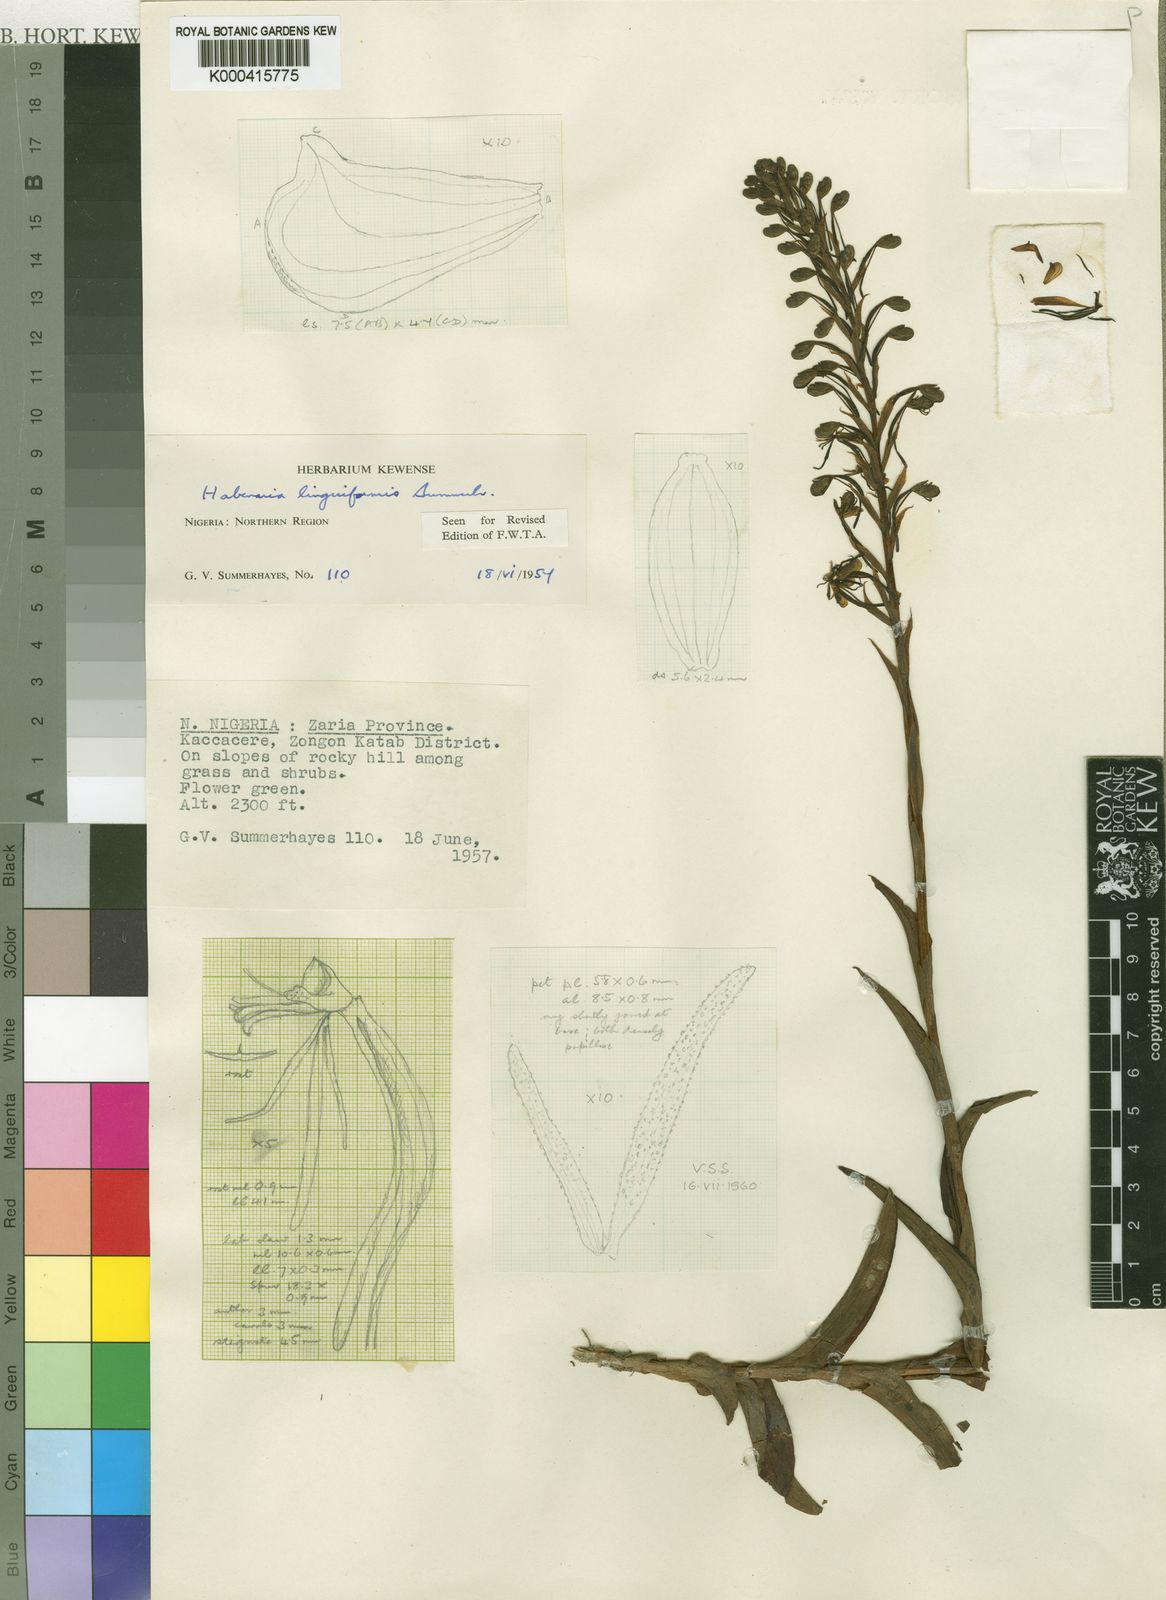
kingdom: Plantae
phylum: Tracheophyta
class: Liliopsida
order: Asparagales
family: Orchidaceae
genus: Habenaria
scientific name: Habenaria linguiformis
